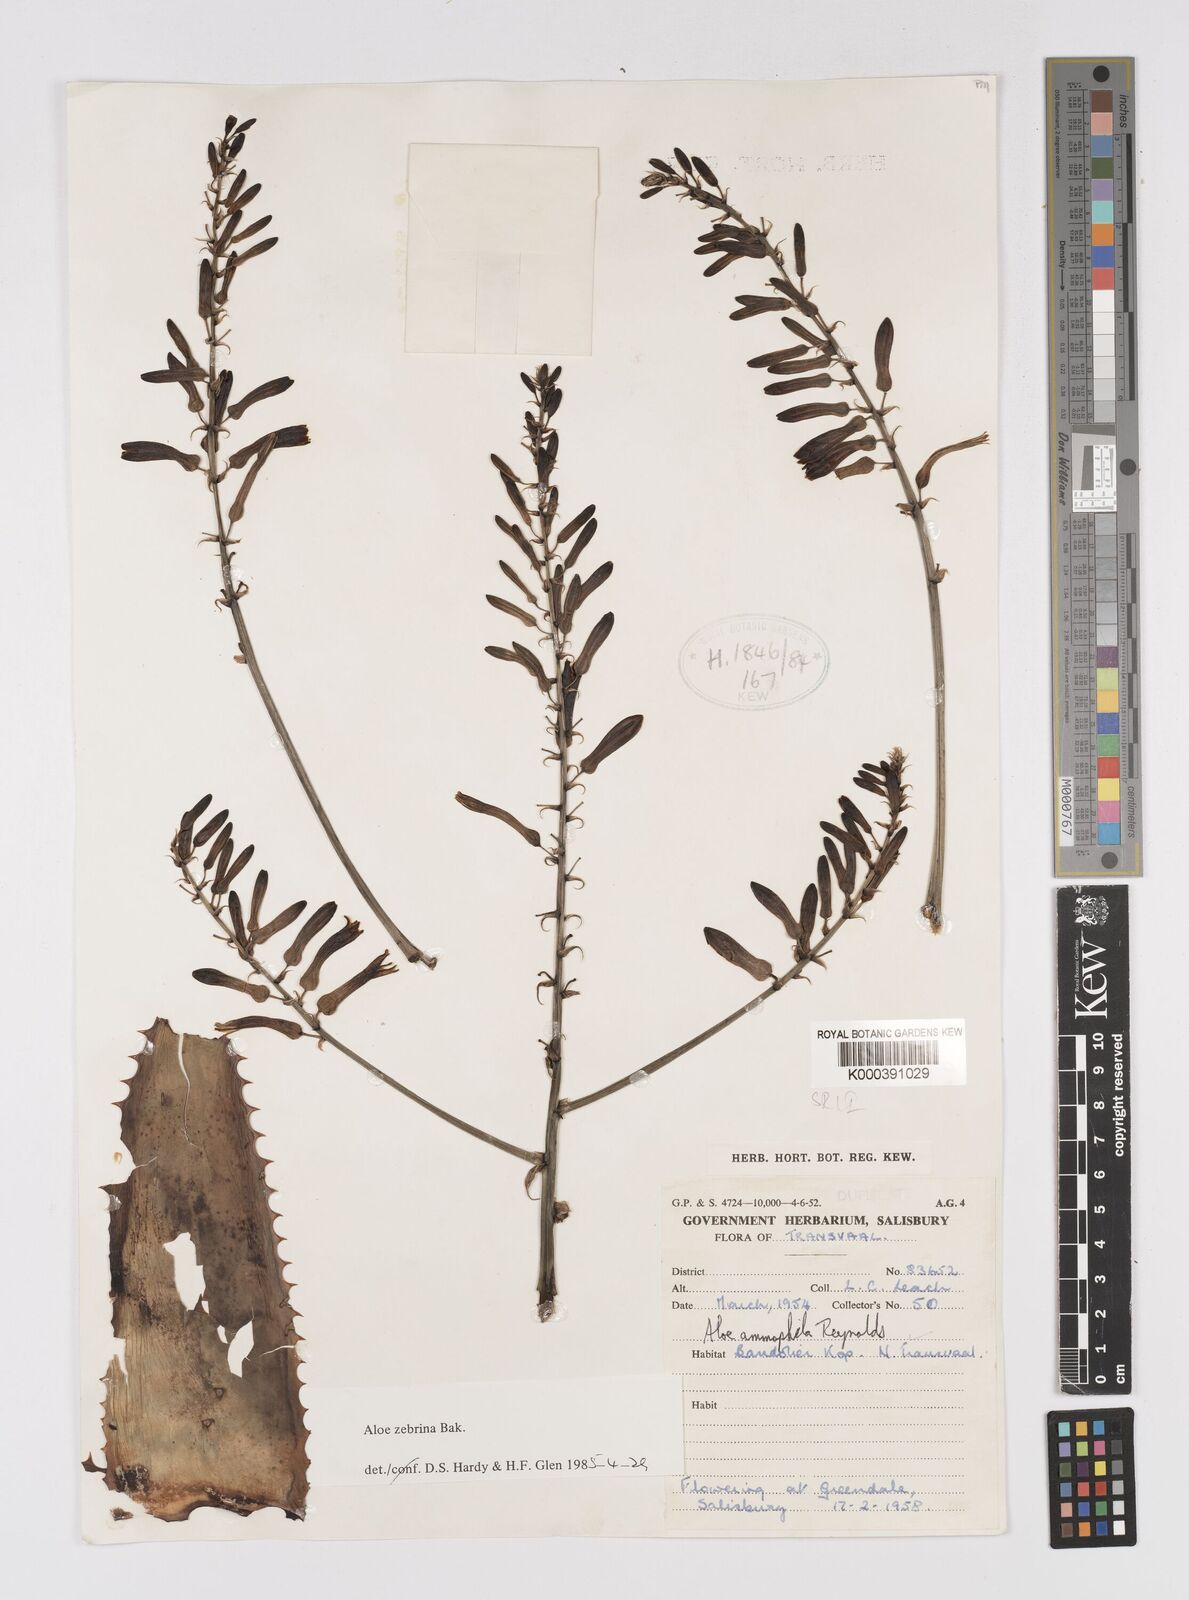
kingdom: Plantae
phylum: Tracheophyta
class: Liliopsida
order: Asparagales
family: Asphodelaceae
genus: Aloe
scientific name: Aloe zebrina
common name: Zebra-leaf aloe
